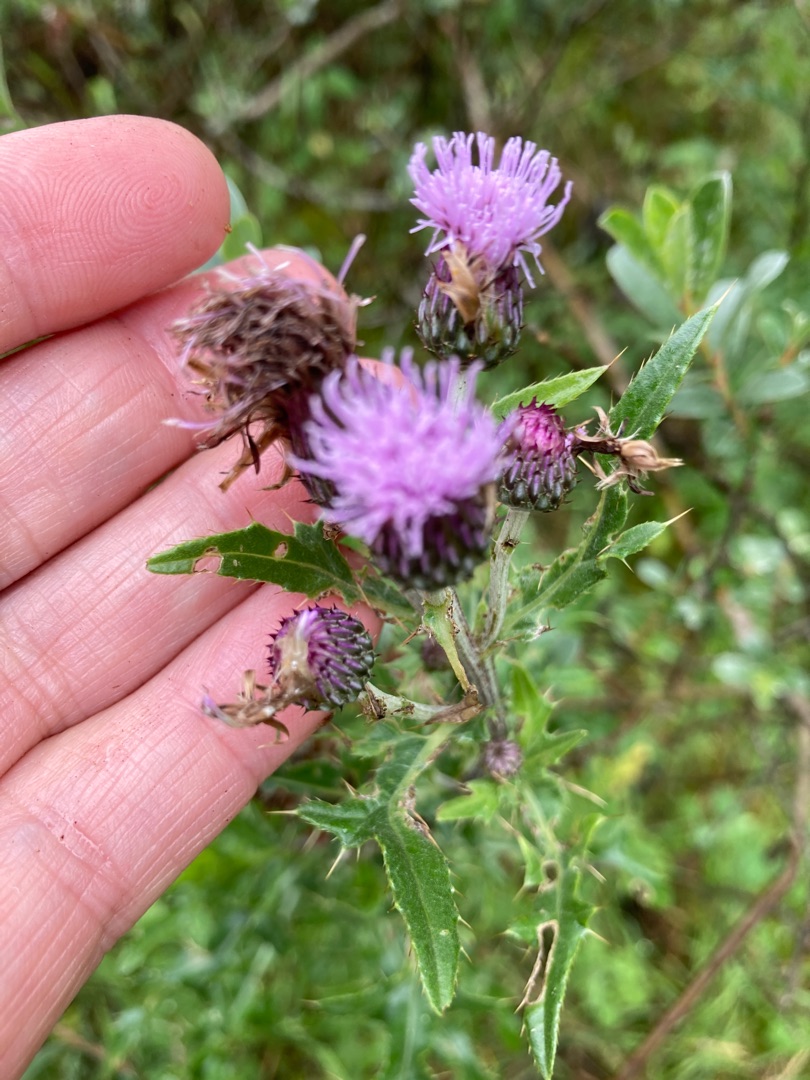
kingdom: Plantae
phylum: Tracheophyta
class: Magnoliopsida
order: Asterales
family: Asteraceae
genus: Cirsium
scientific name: Cirsium arvense
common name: Ager-tidsel
